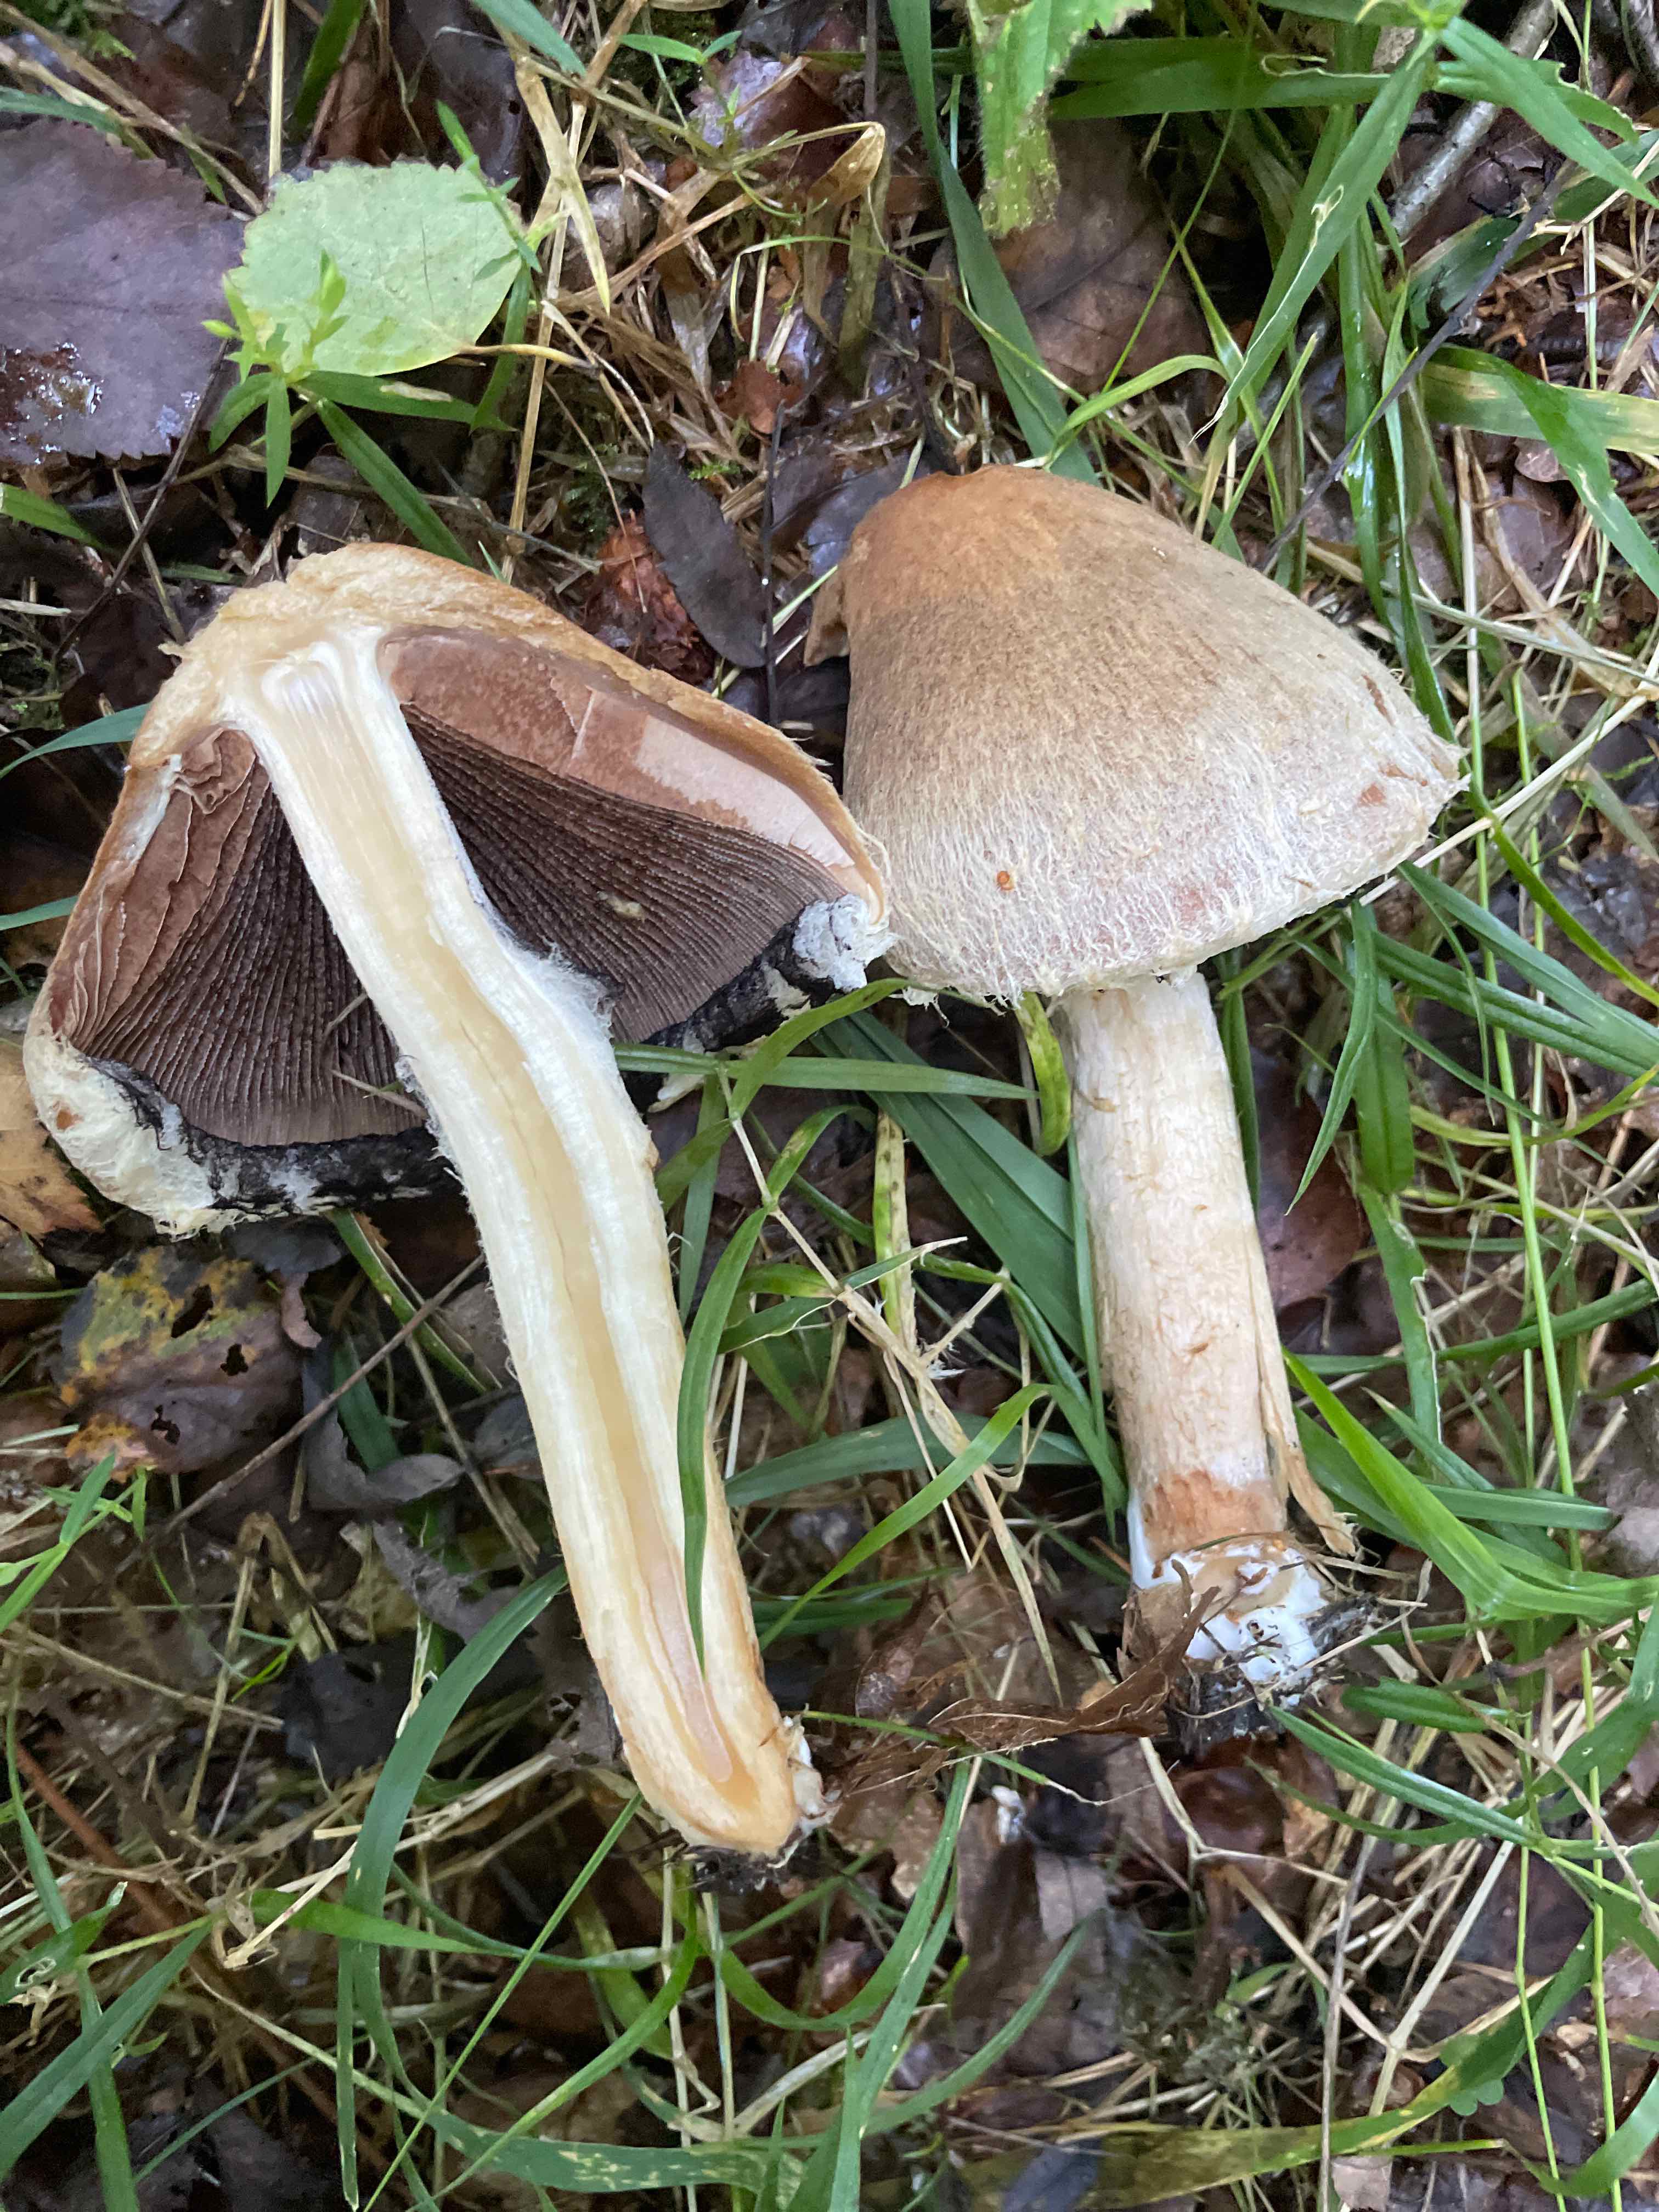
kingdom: Fungi
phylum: Basidiomycota
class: Agaricomycetes
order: Agaricales
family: Psathyrellaceae
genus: Lacrymaria
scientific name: Lacrymaria lacrymabunda
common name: grædende mørkhat
